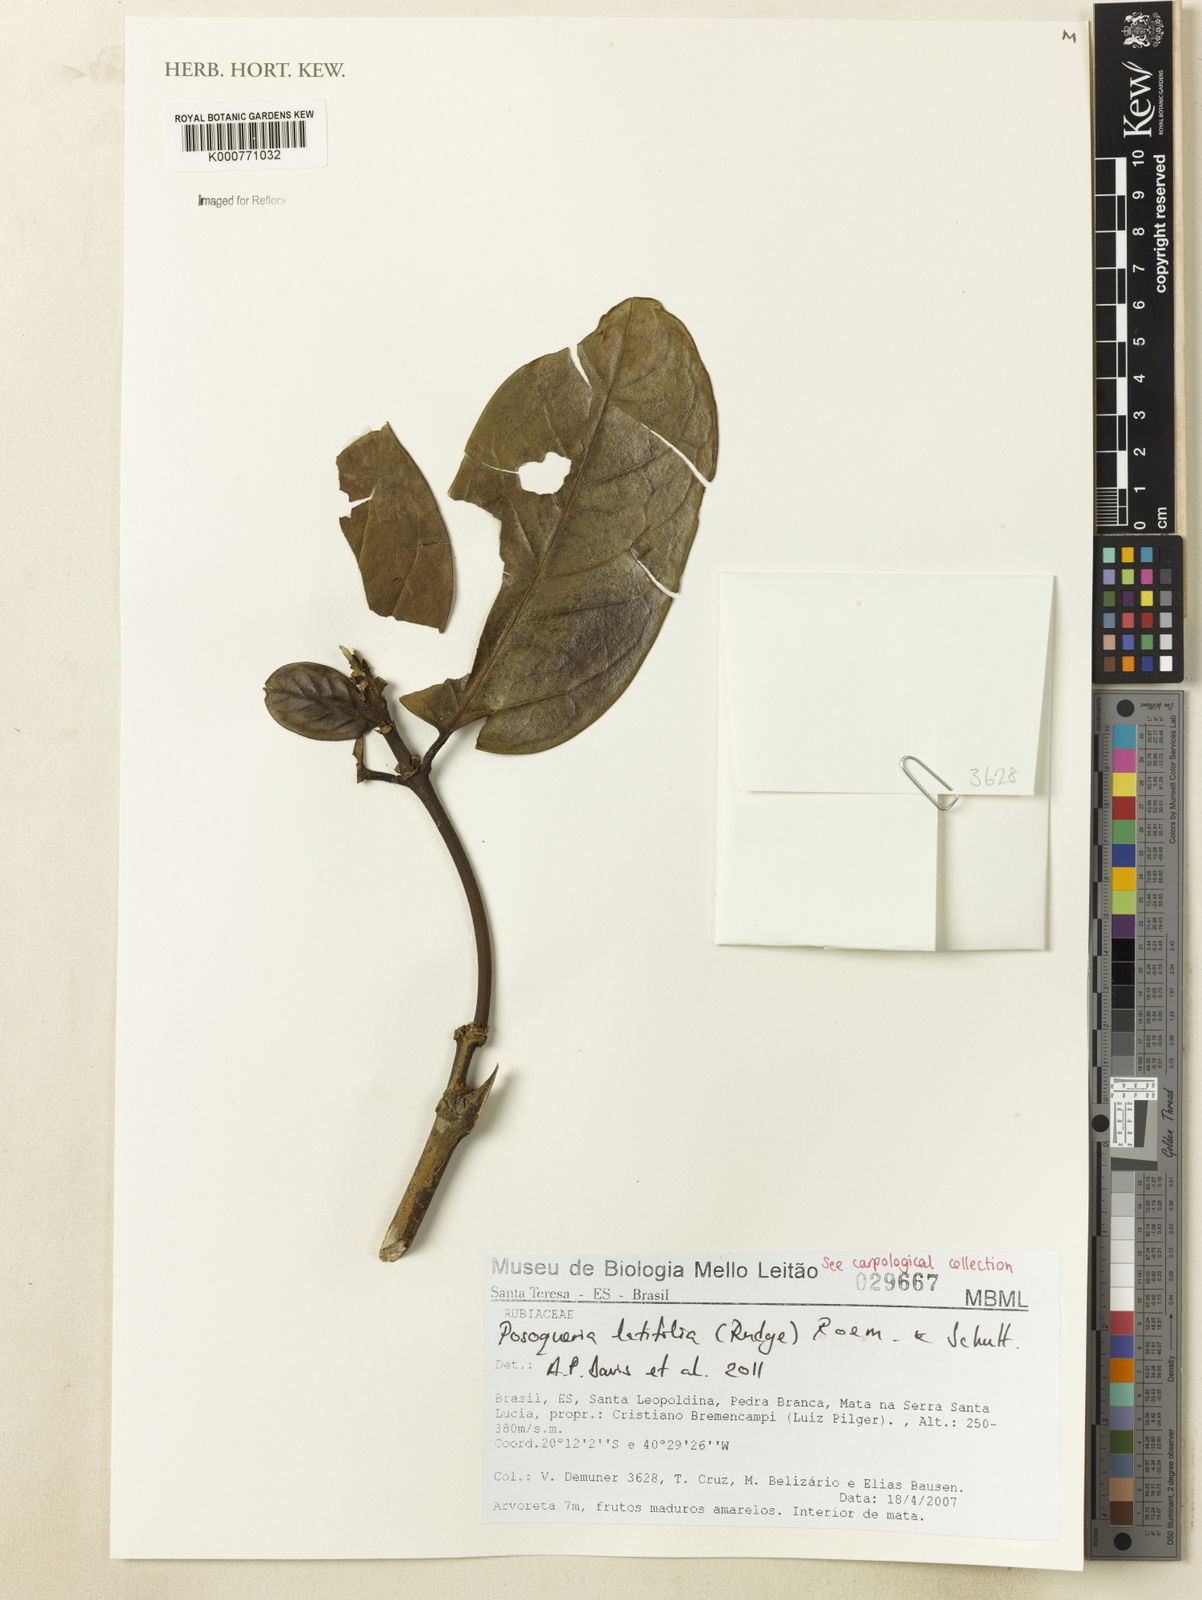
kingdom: Plantae
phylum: Tracheophyta
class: Magnoliopsida
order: Gentianales
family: Rubiaceae
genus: Posoqueria
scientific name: Posoqueria latifolia
